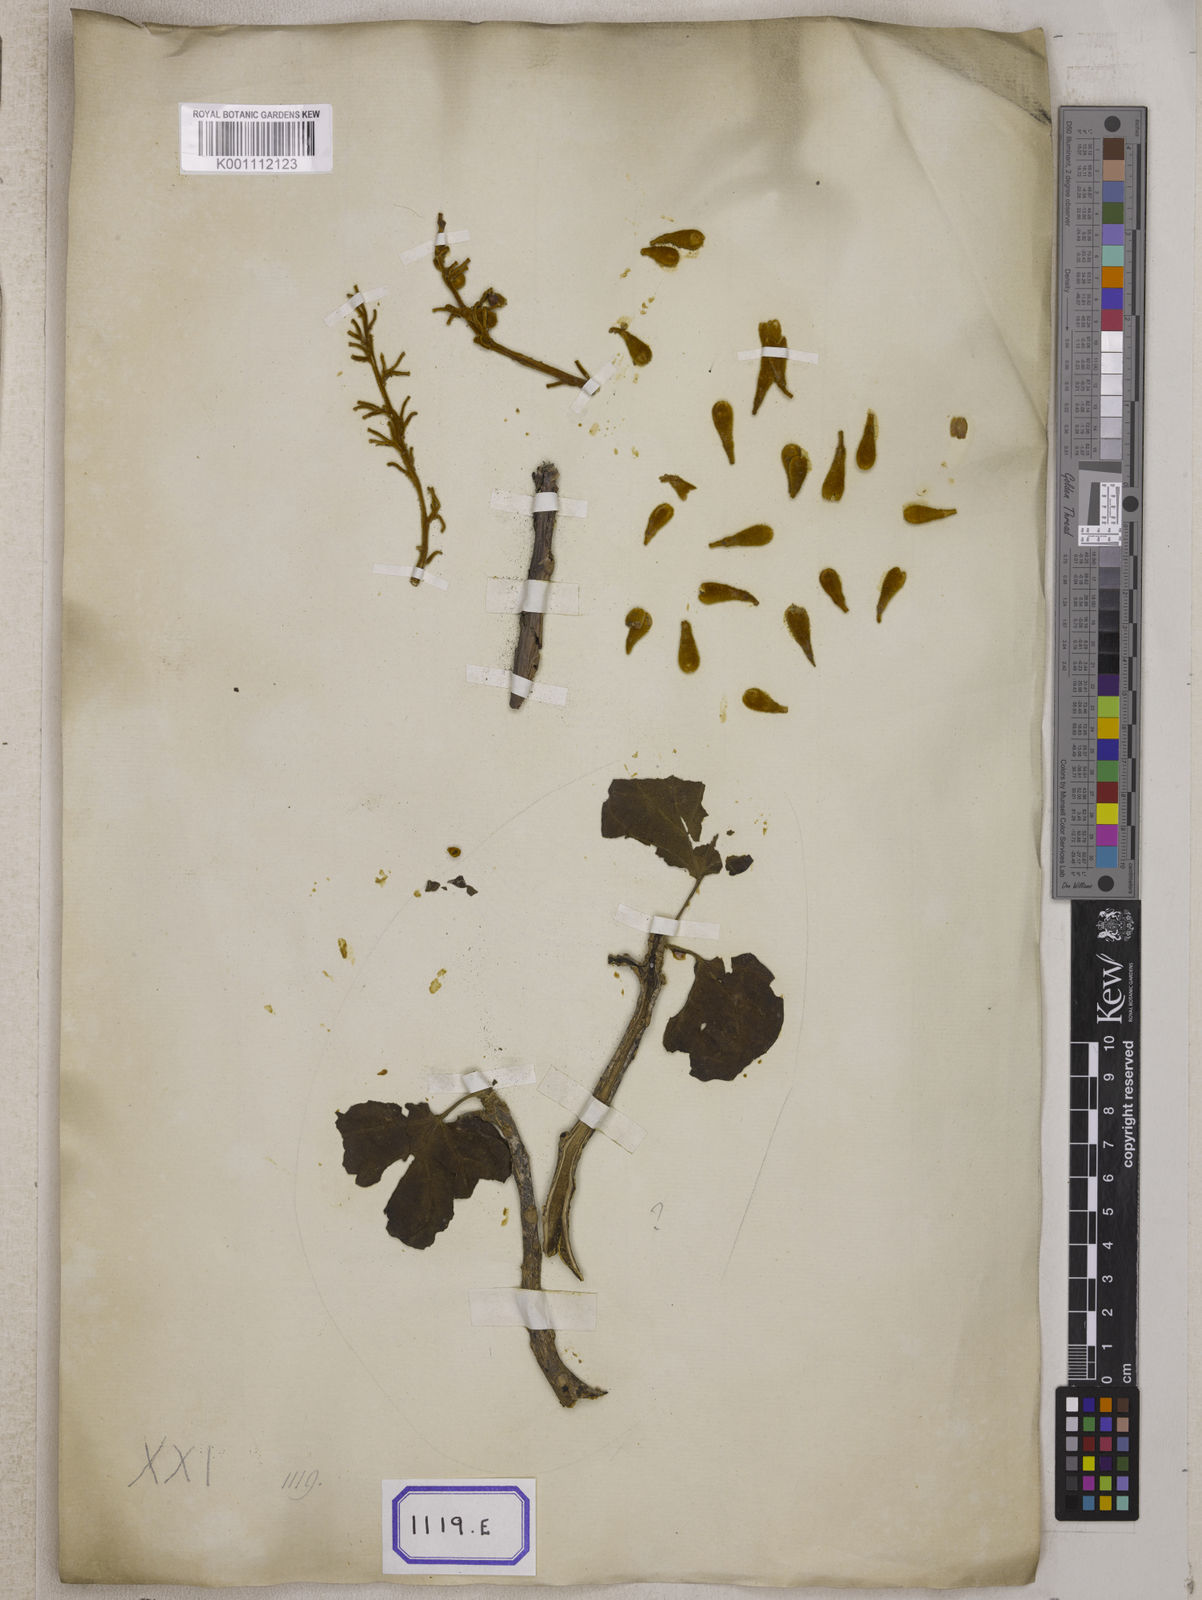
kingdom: Plantae
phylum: Tracheophyta
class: Magnoliopsida
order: Malvales
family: Malvaceae
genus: Firmiana
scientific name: Firmiana colorata
